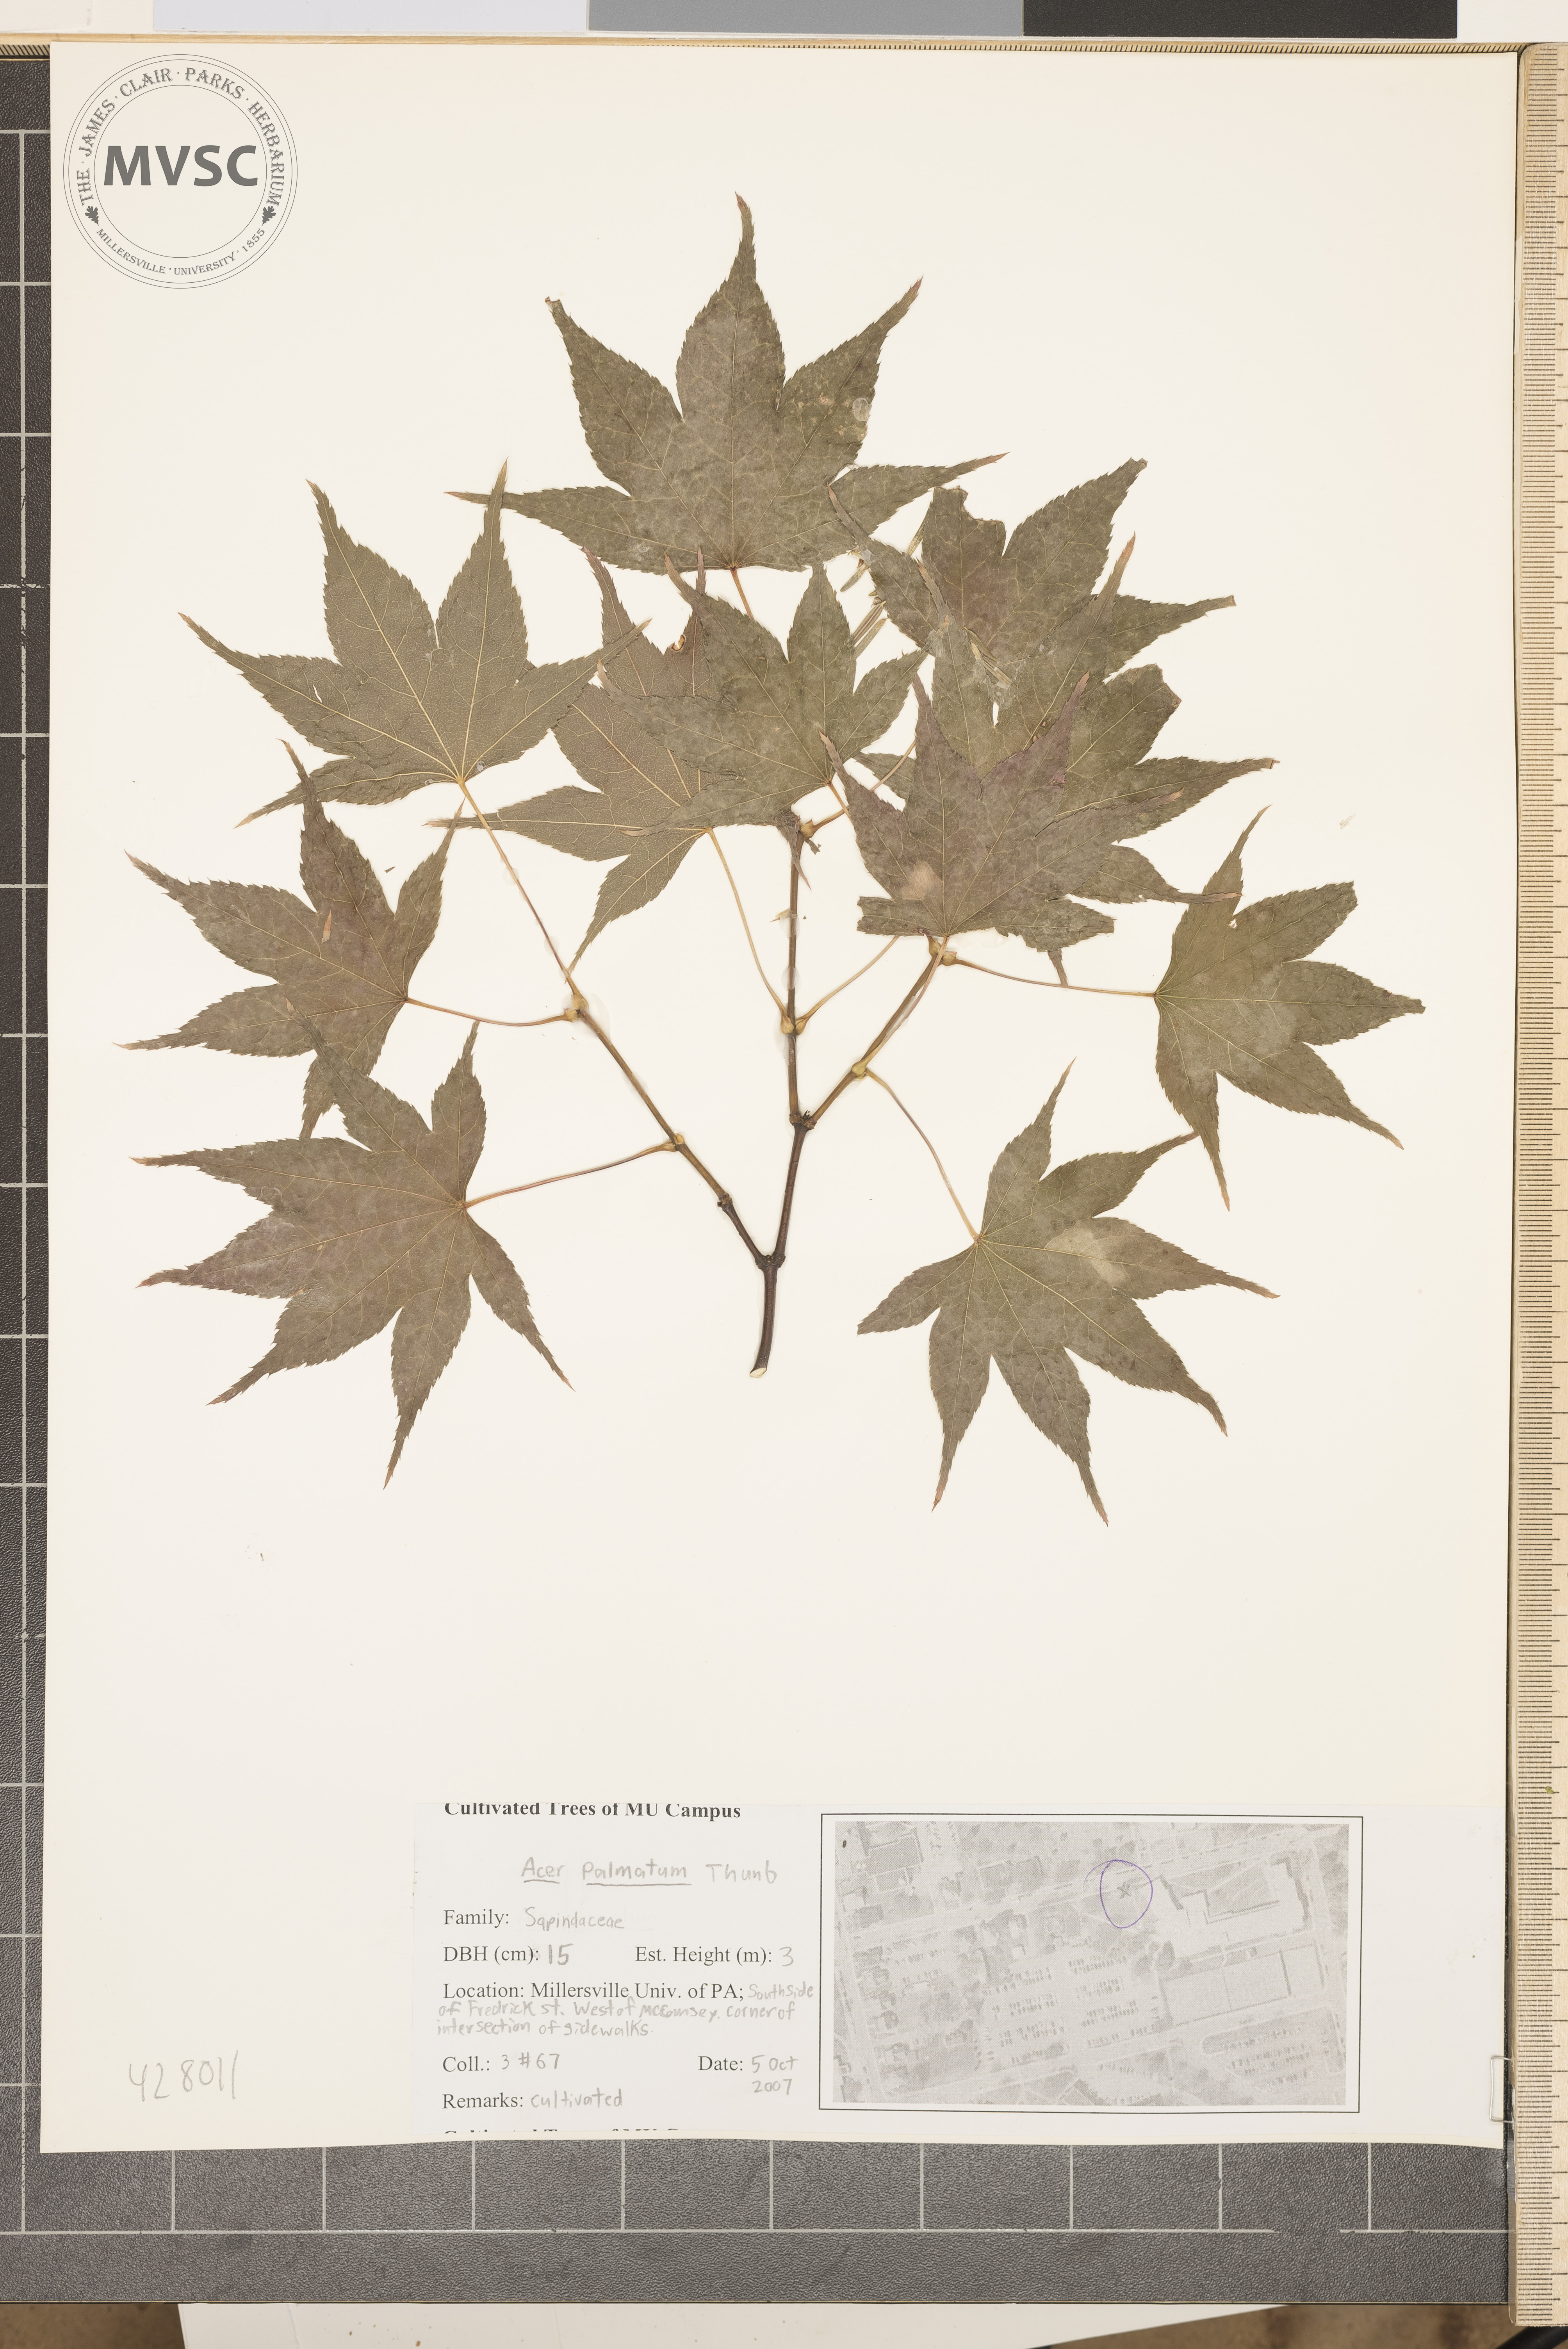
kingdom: Plantae
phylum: Tracheophyta
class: Magnoliopsida
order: Sapindales
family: Sapindaceae
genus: Acer
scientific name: Acer palmatum
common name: Japanese Maple
